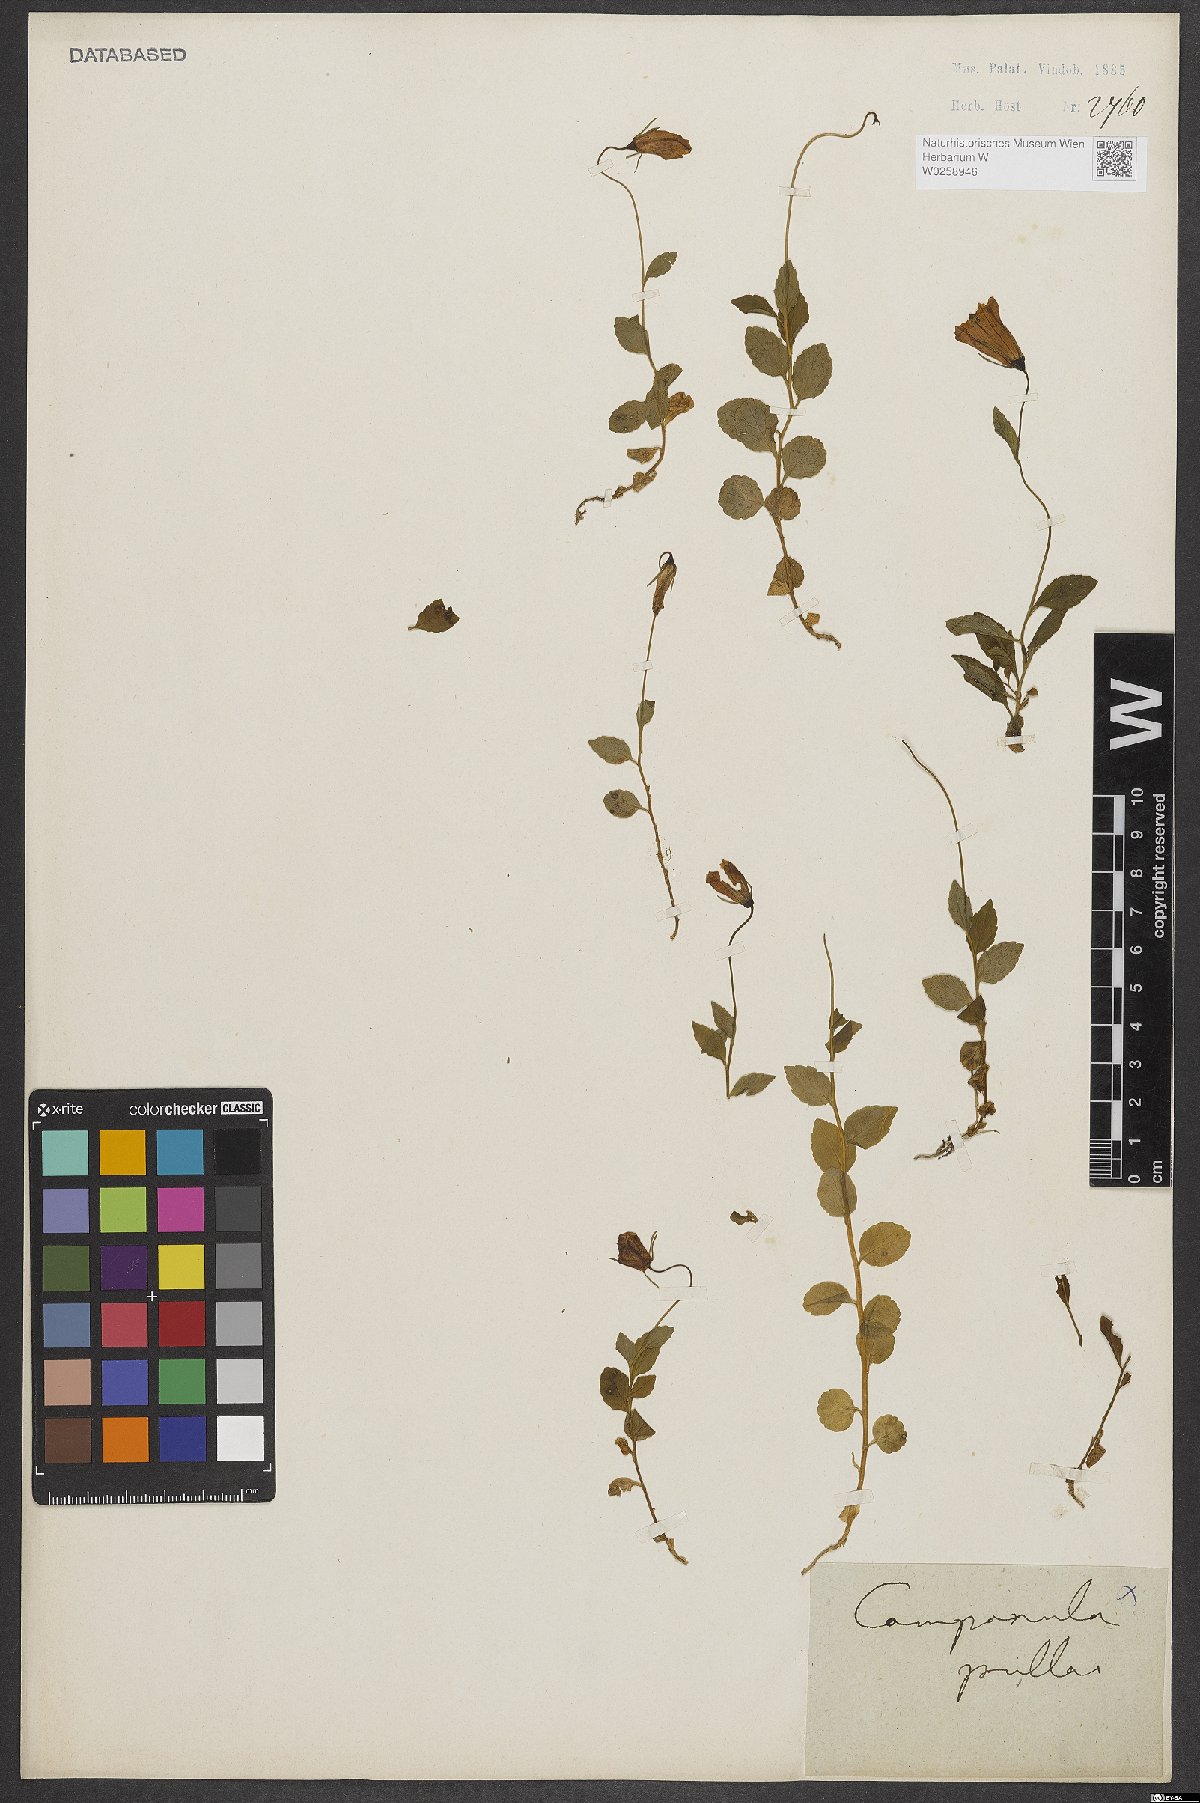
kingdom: Plantae
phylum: Tracheophyta
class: Magnoliopsida
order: Asterales
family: Campanulaceae
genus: Campanula
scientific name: Campanula pulla
